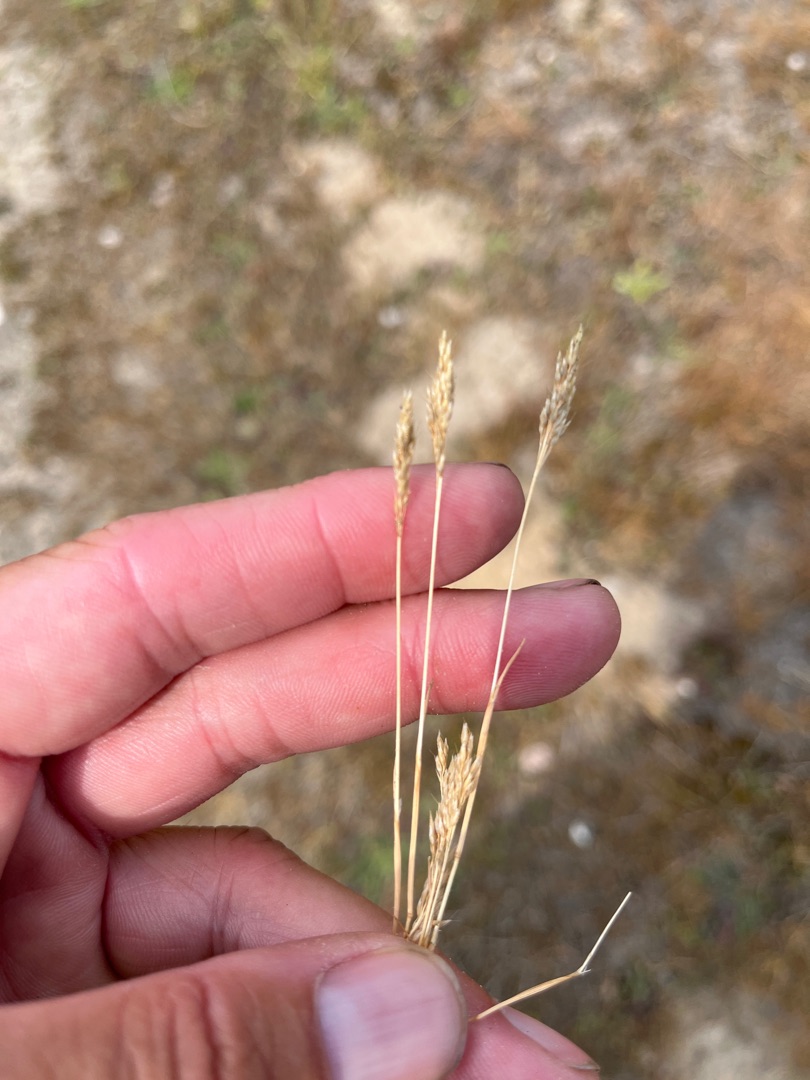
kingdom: Plantae
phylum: Tracheophyta
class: Liliopsida
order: Poales
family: Poaceae
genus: Aira
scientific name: Aira praecox
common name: Tidlig dværgbunke
